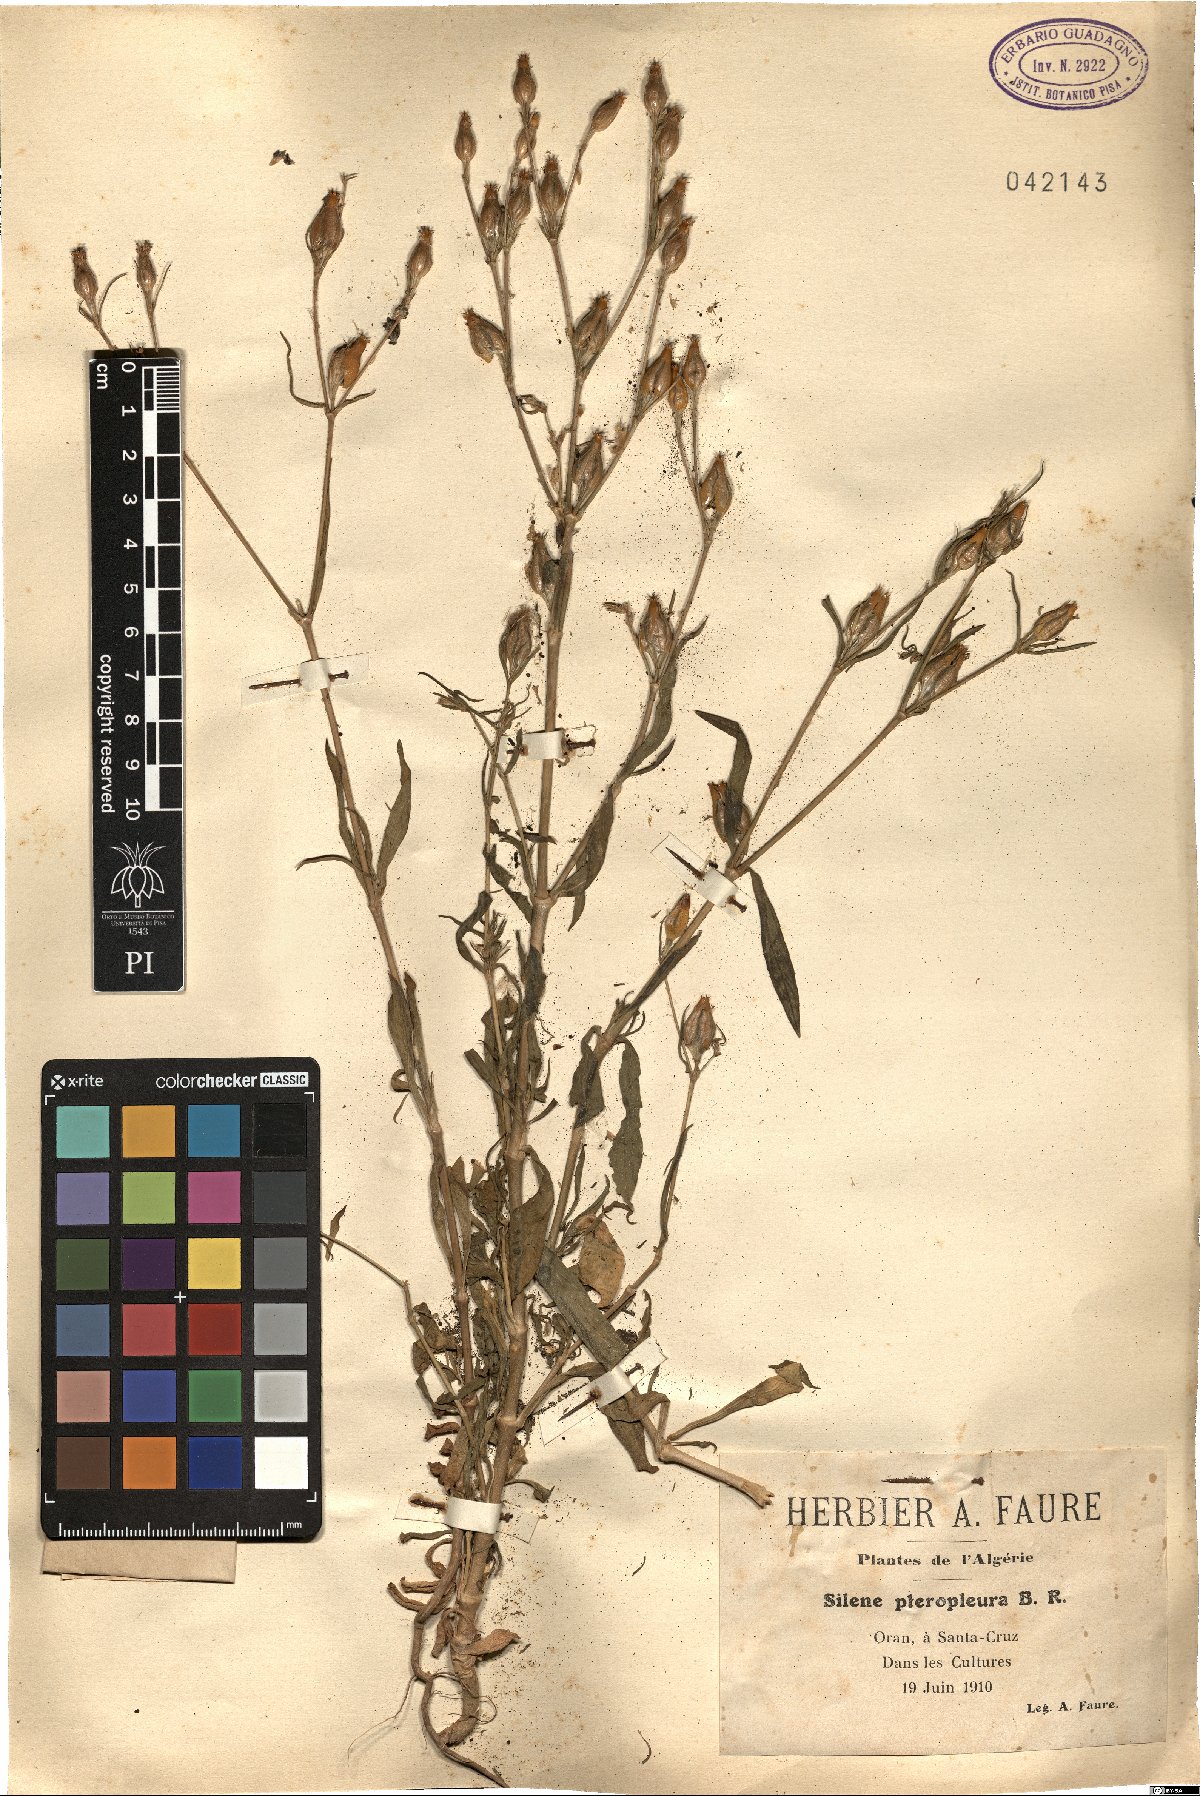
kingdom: Plantae
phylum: Tracheophyta
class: Magnoliopsida
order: Caryophyllales
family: Caryophyllaceae
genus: Silene
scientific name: Silene stricta
